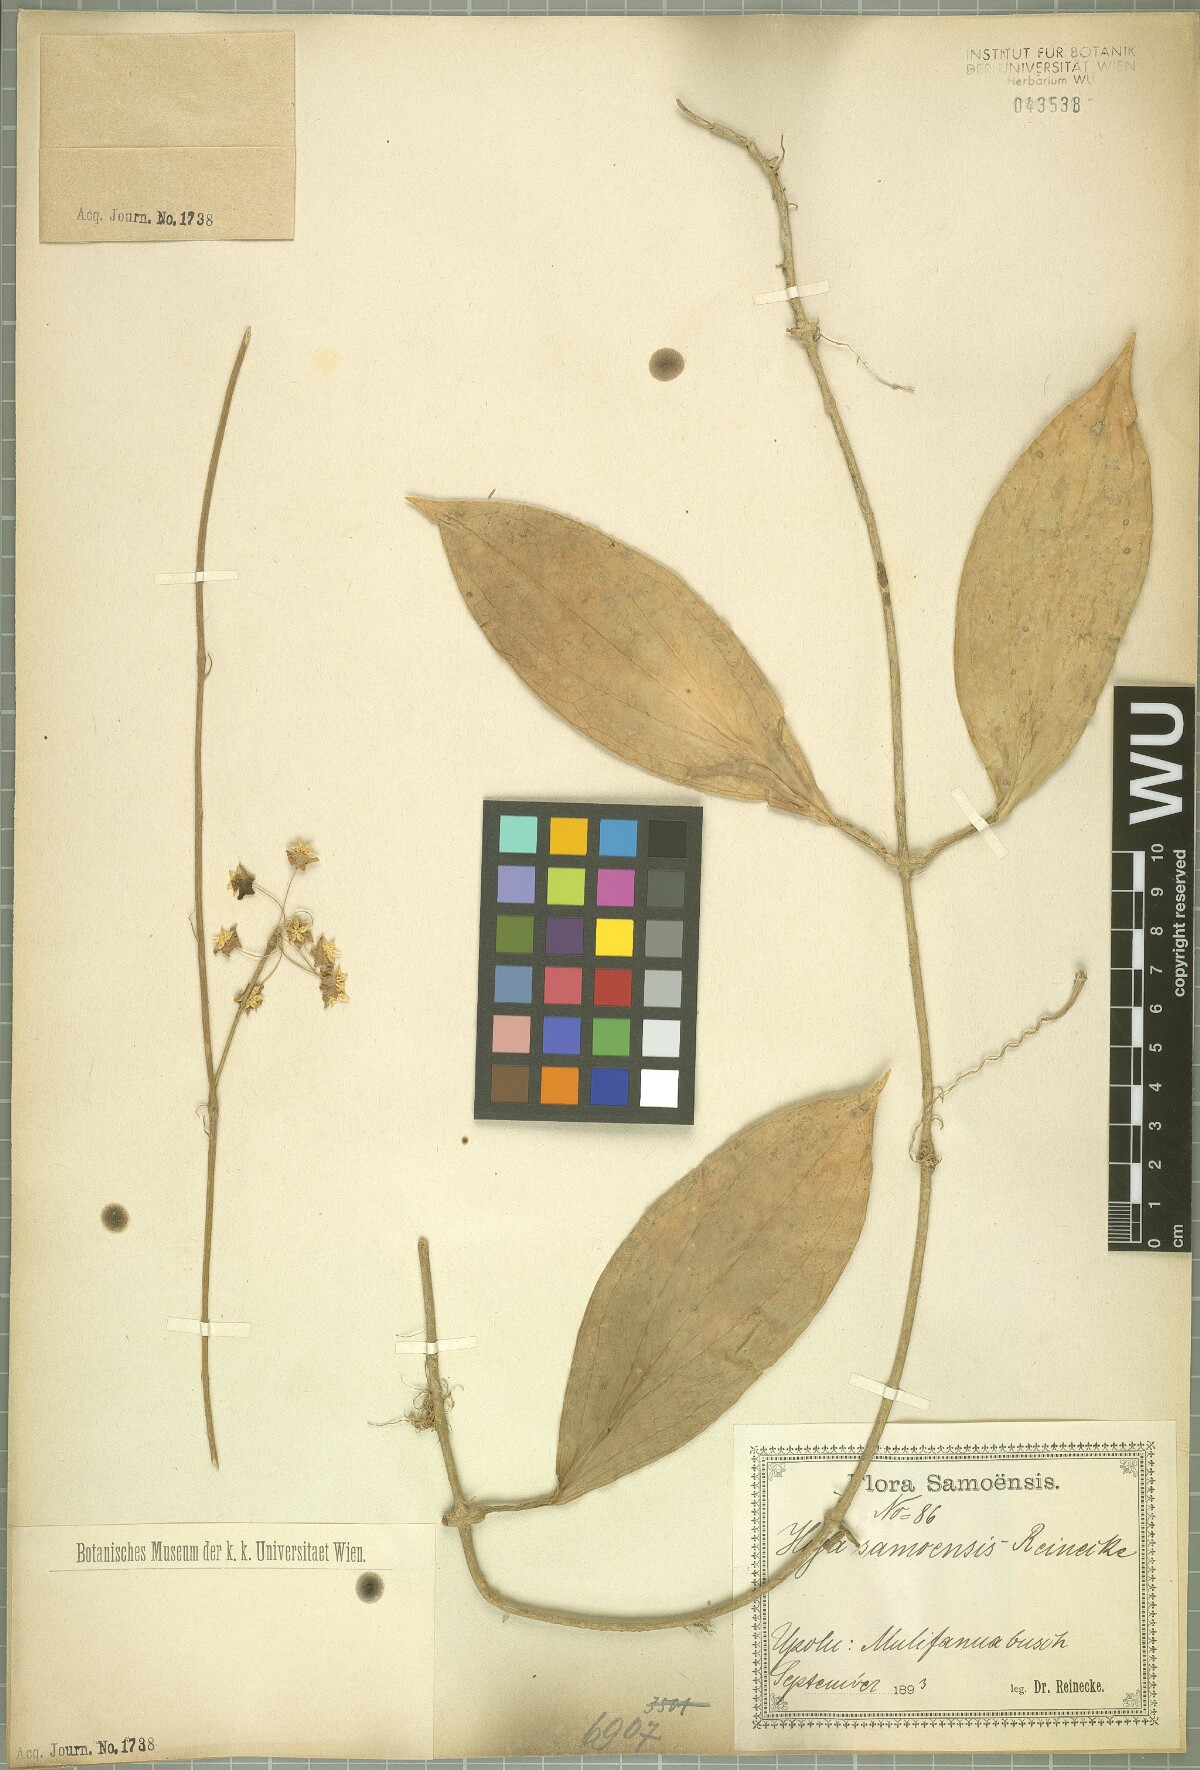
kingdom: Plantae
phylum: Tracheophyta
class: Magnoliopsida
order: Gentianales
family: Apocynaceae
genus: Hoya
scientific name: Hoya nicholsoniae
